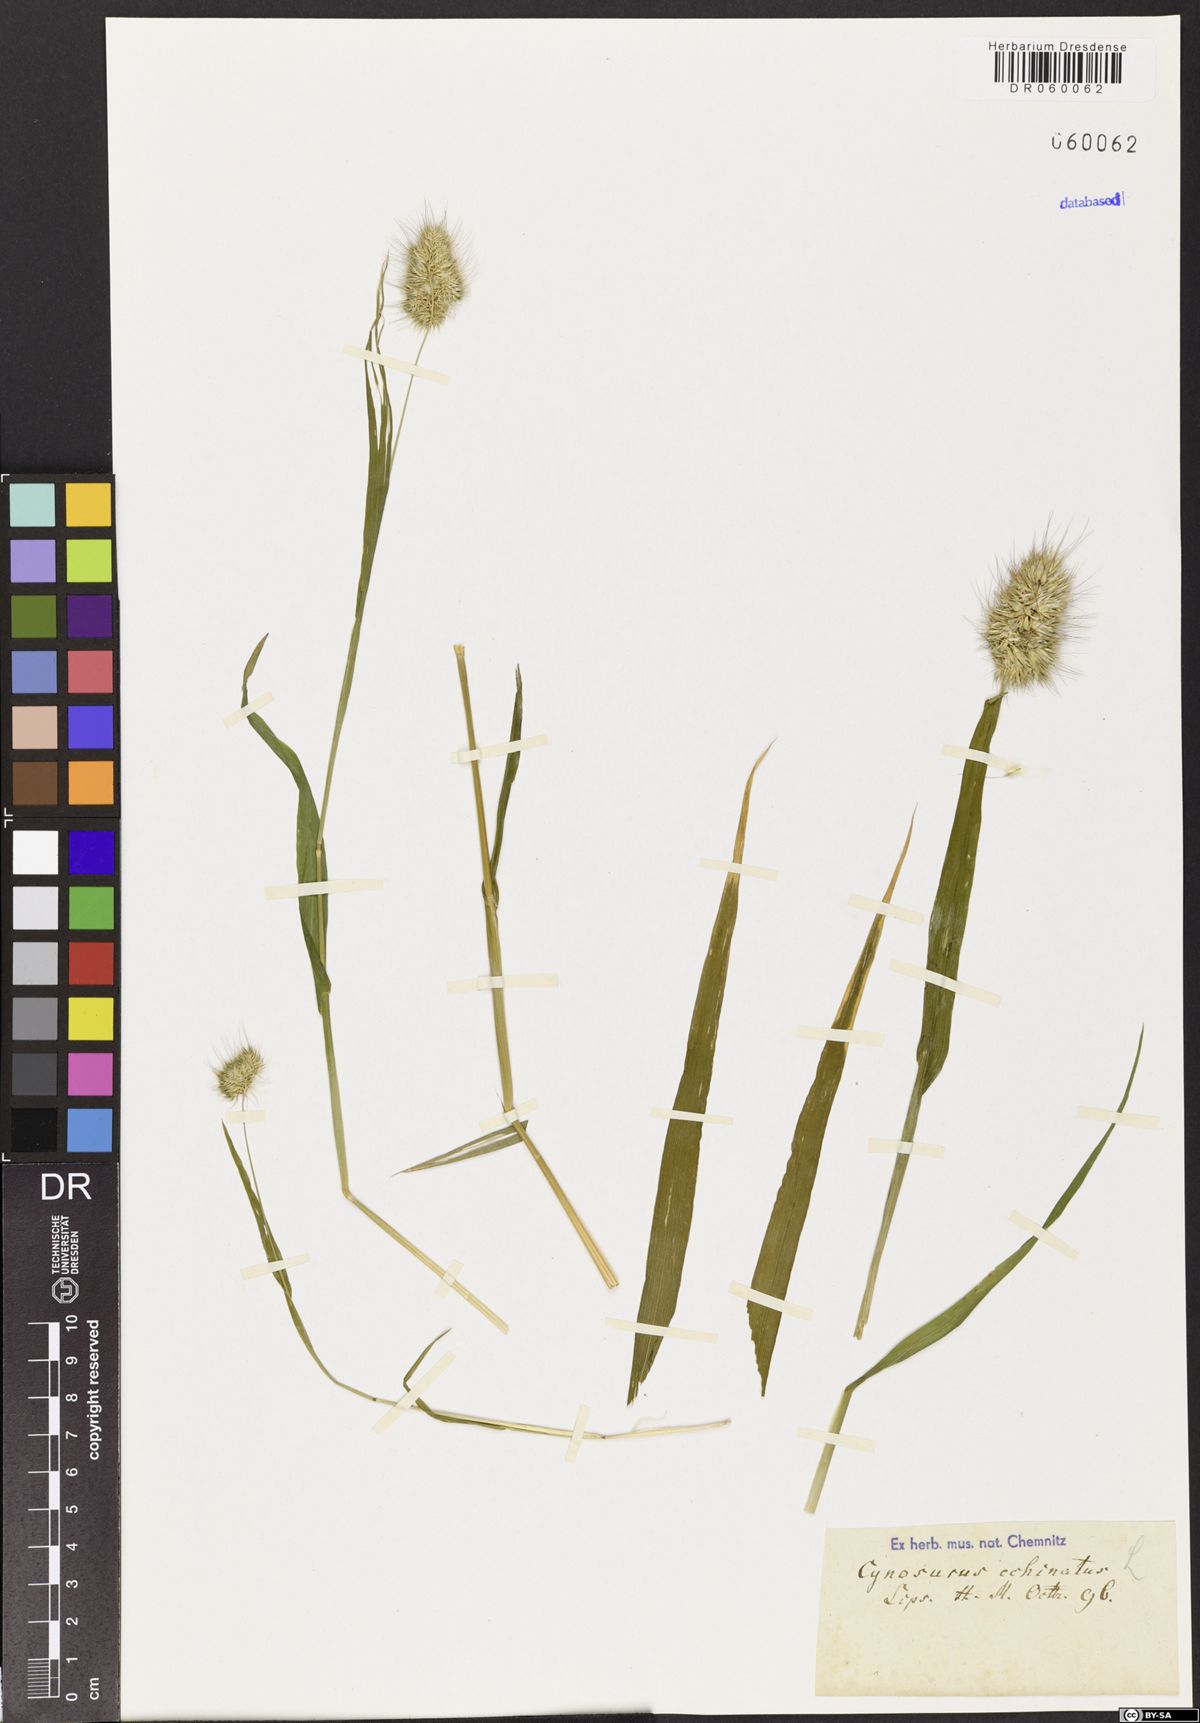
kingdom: Plantae
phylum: Tracheophyta
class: Liliopsida
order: Poales
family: Poaceae
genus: Cynosurus
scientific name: Cynosurus echinatus
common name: Rough dog's-tail
